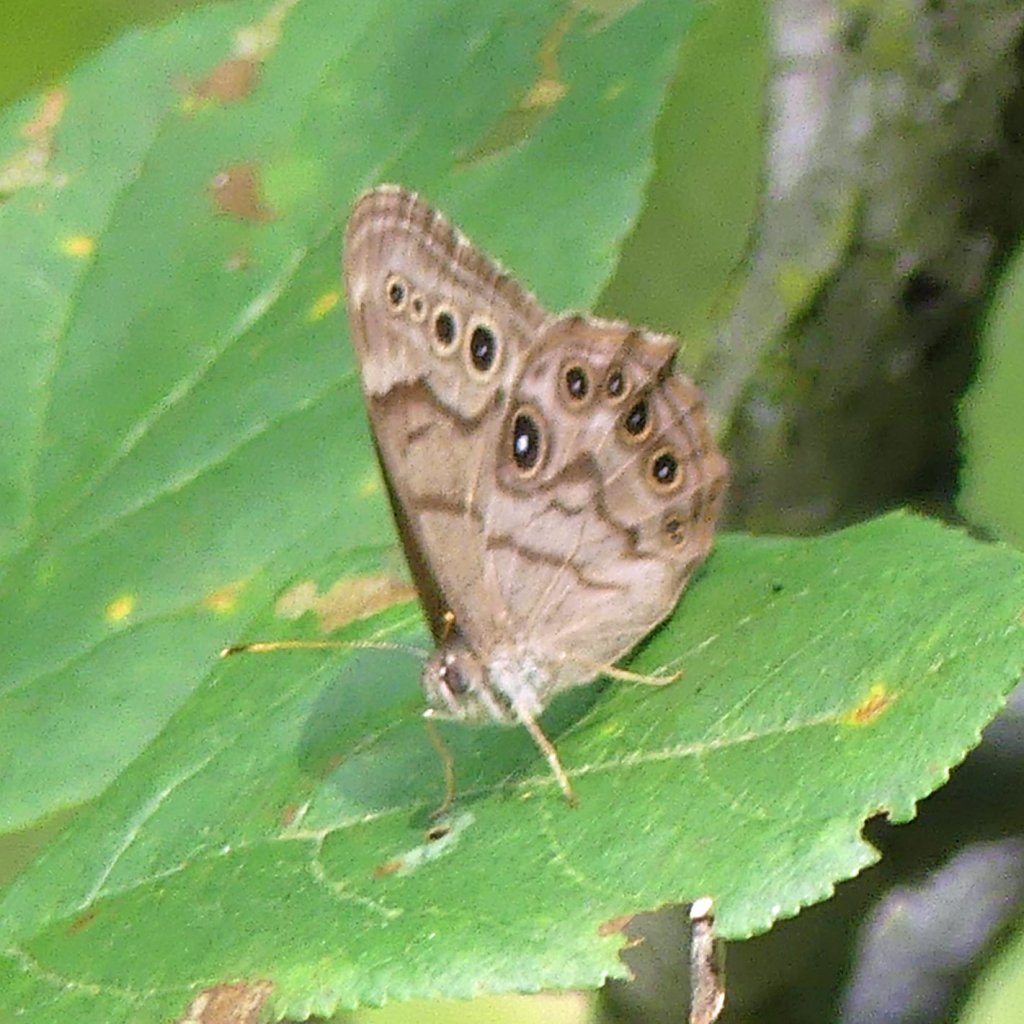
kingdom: Animalia
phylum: Arthropoda
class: Insecta
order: Lepidoptera
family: Nymphalidae
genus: Lethe
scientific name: Lethe anthedon
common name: Northern Pearly-Eye
